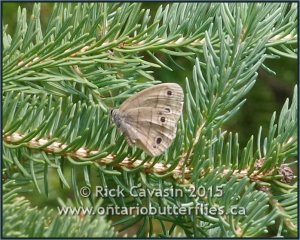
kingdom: Animalia
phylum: Arthropoda
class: Insecta
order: Lepidoptera
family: Nymphalidae
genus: Euptychia
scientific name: Euptychia cymela
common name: Little Wood Satyr
